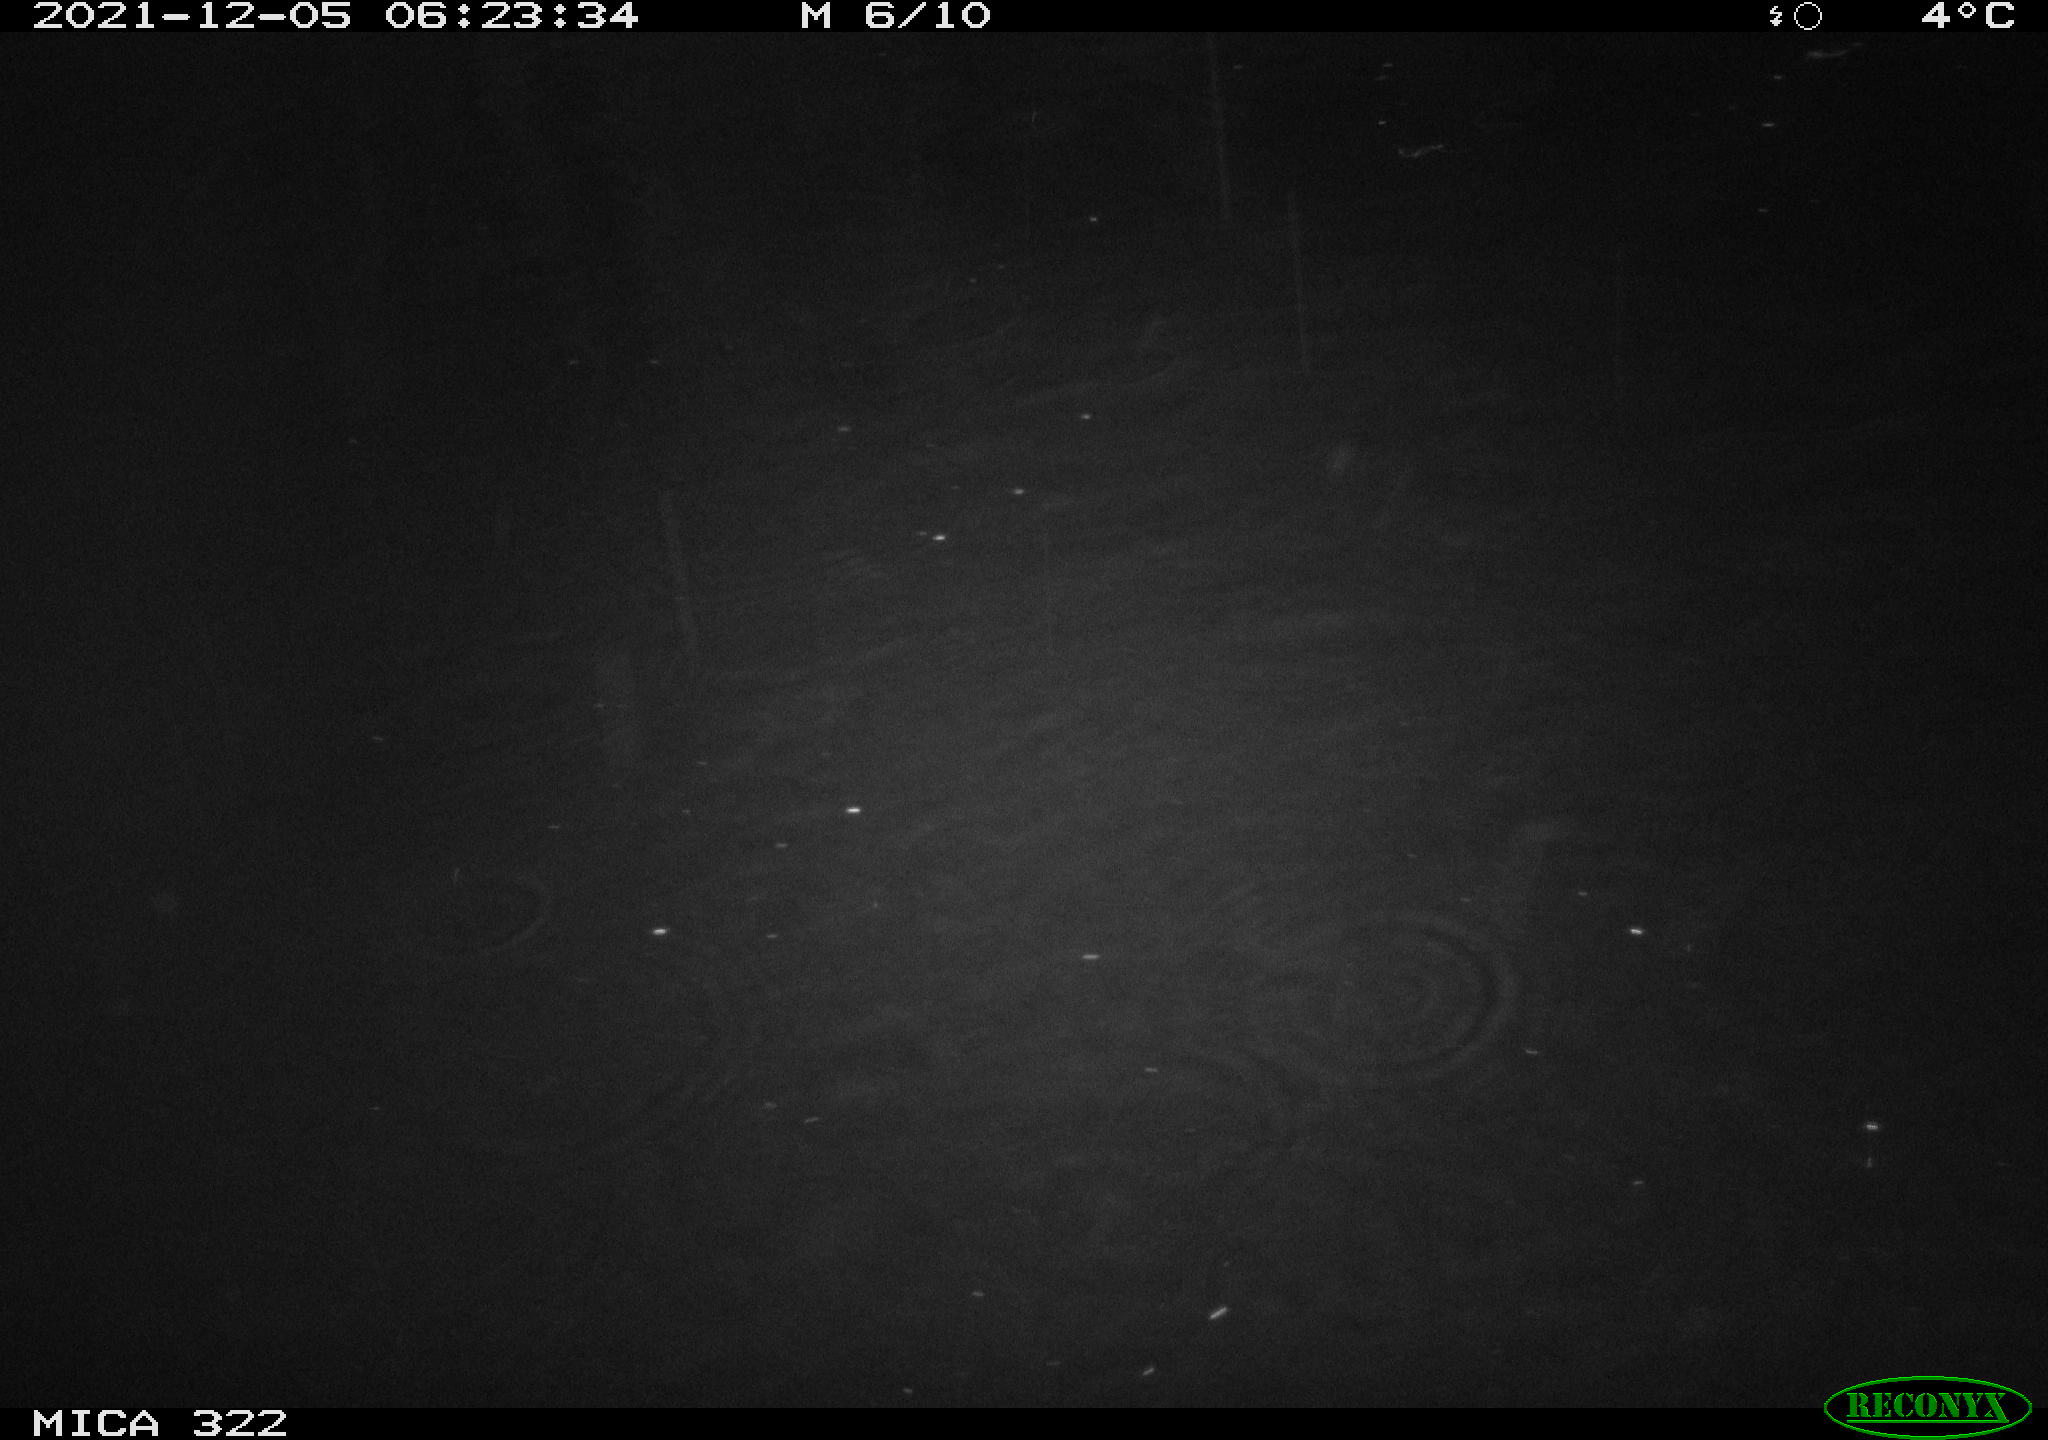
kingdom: Animalia
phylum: Chordata
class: Mammalia
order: Rodentia
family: Castoridae
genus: Castor
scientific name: Castor fiber
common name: Eurasian beaver
